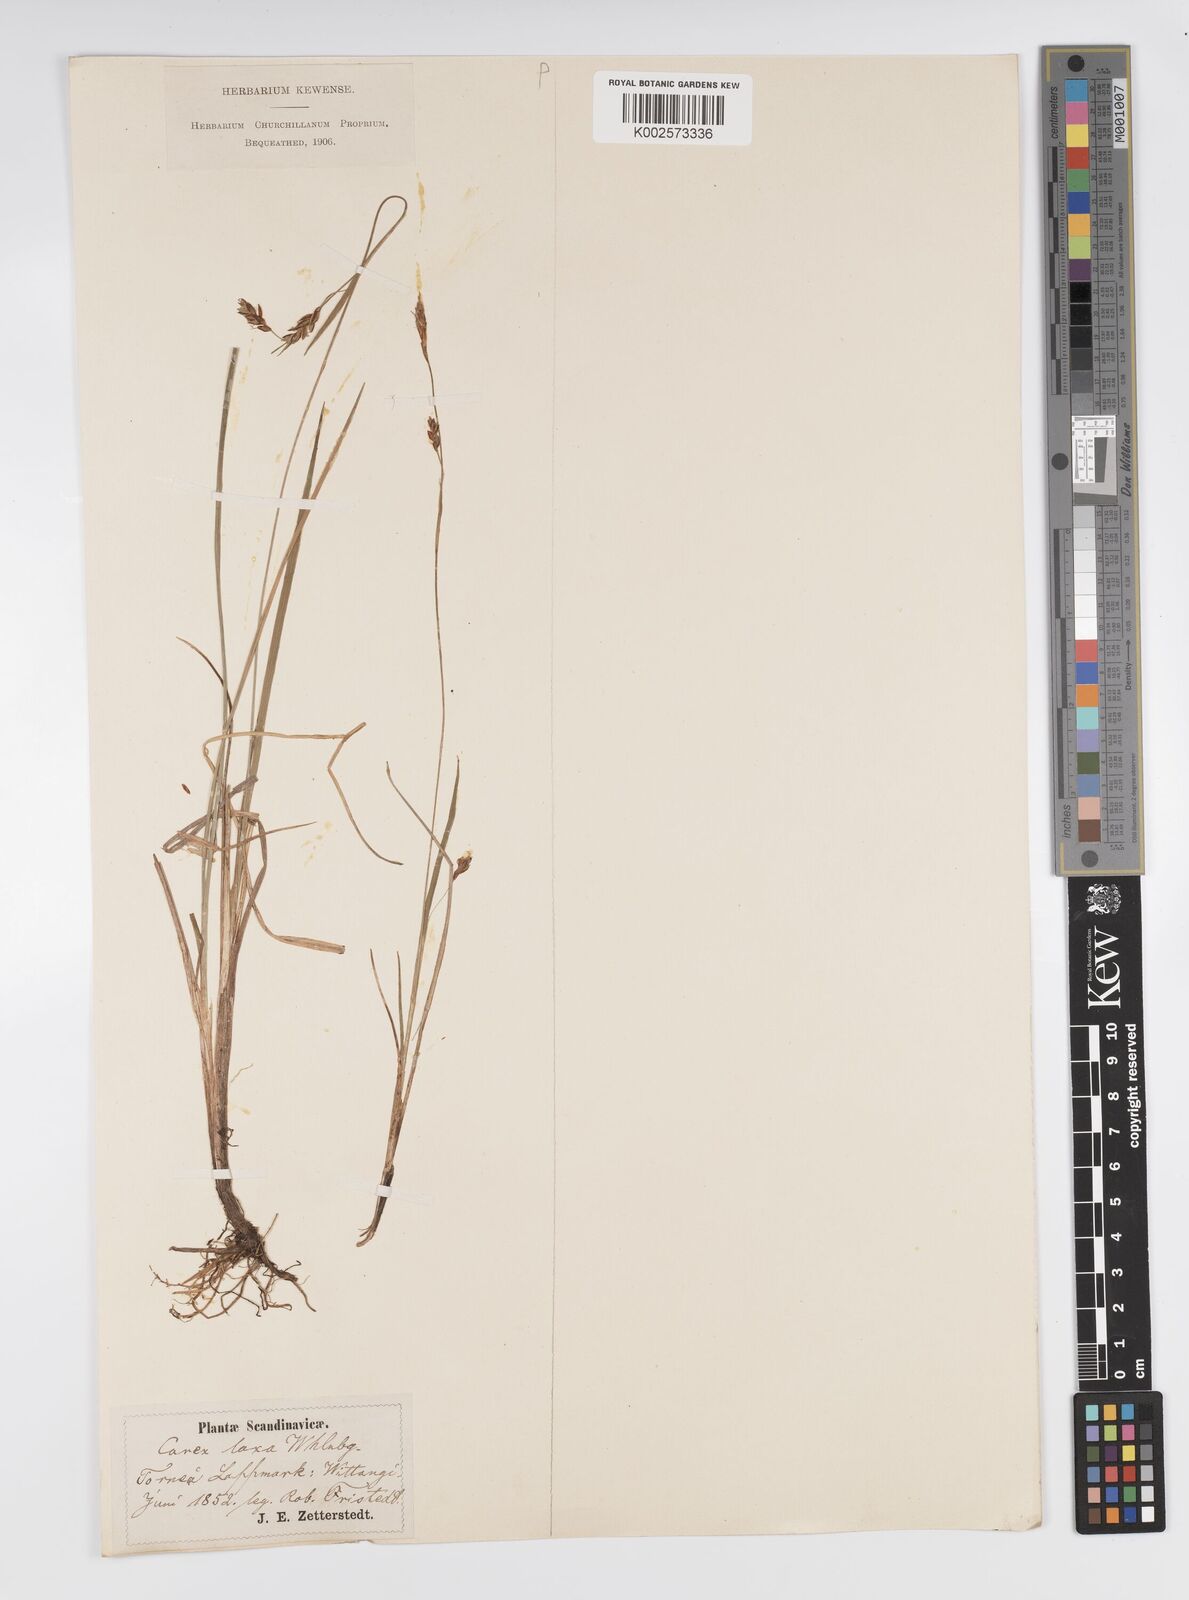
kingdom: Plantae
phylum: Tracheophyta
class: Liliopsida
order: Poales
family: Cyperaceae
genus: Carex
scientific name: Carex laxa
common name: Weak sedge
